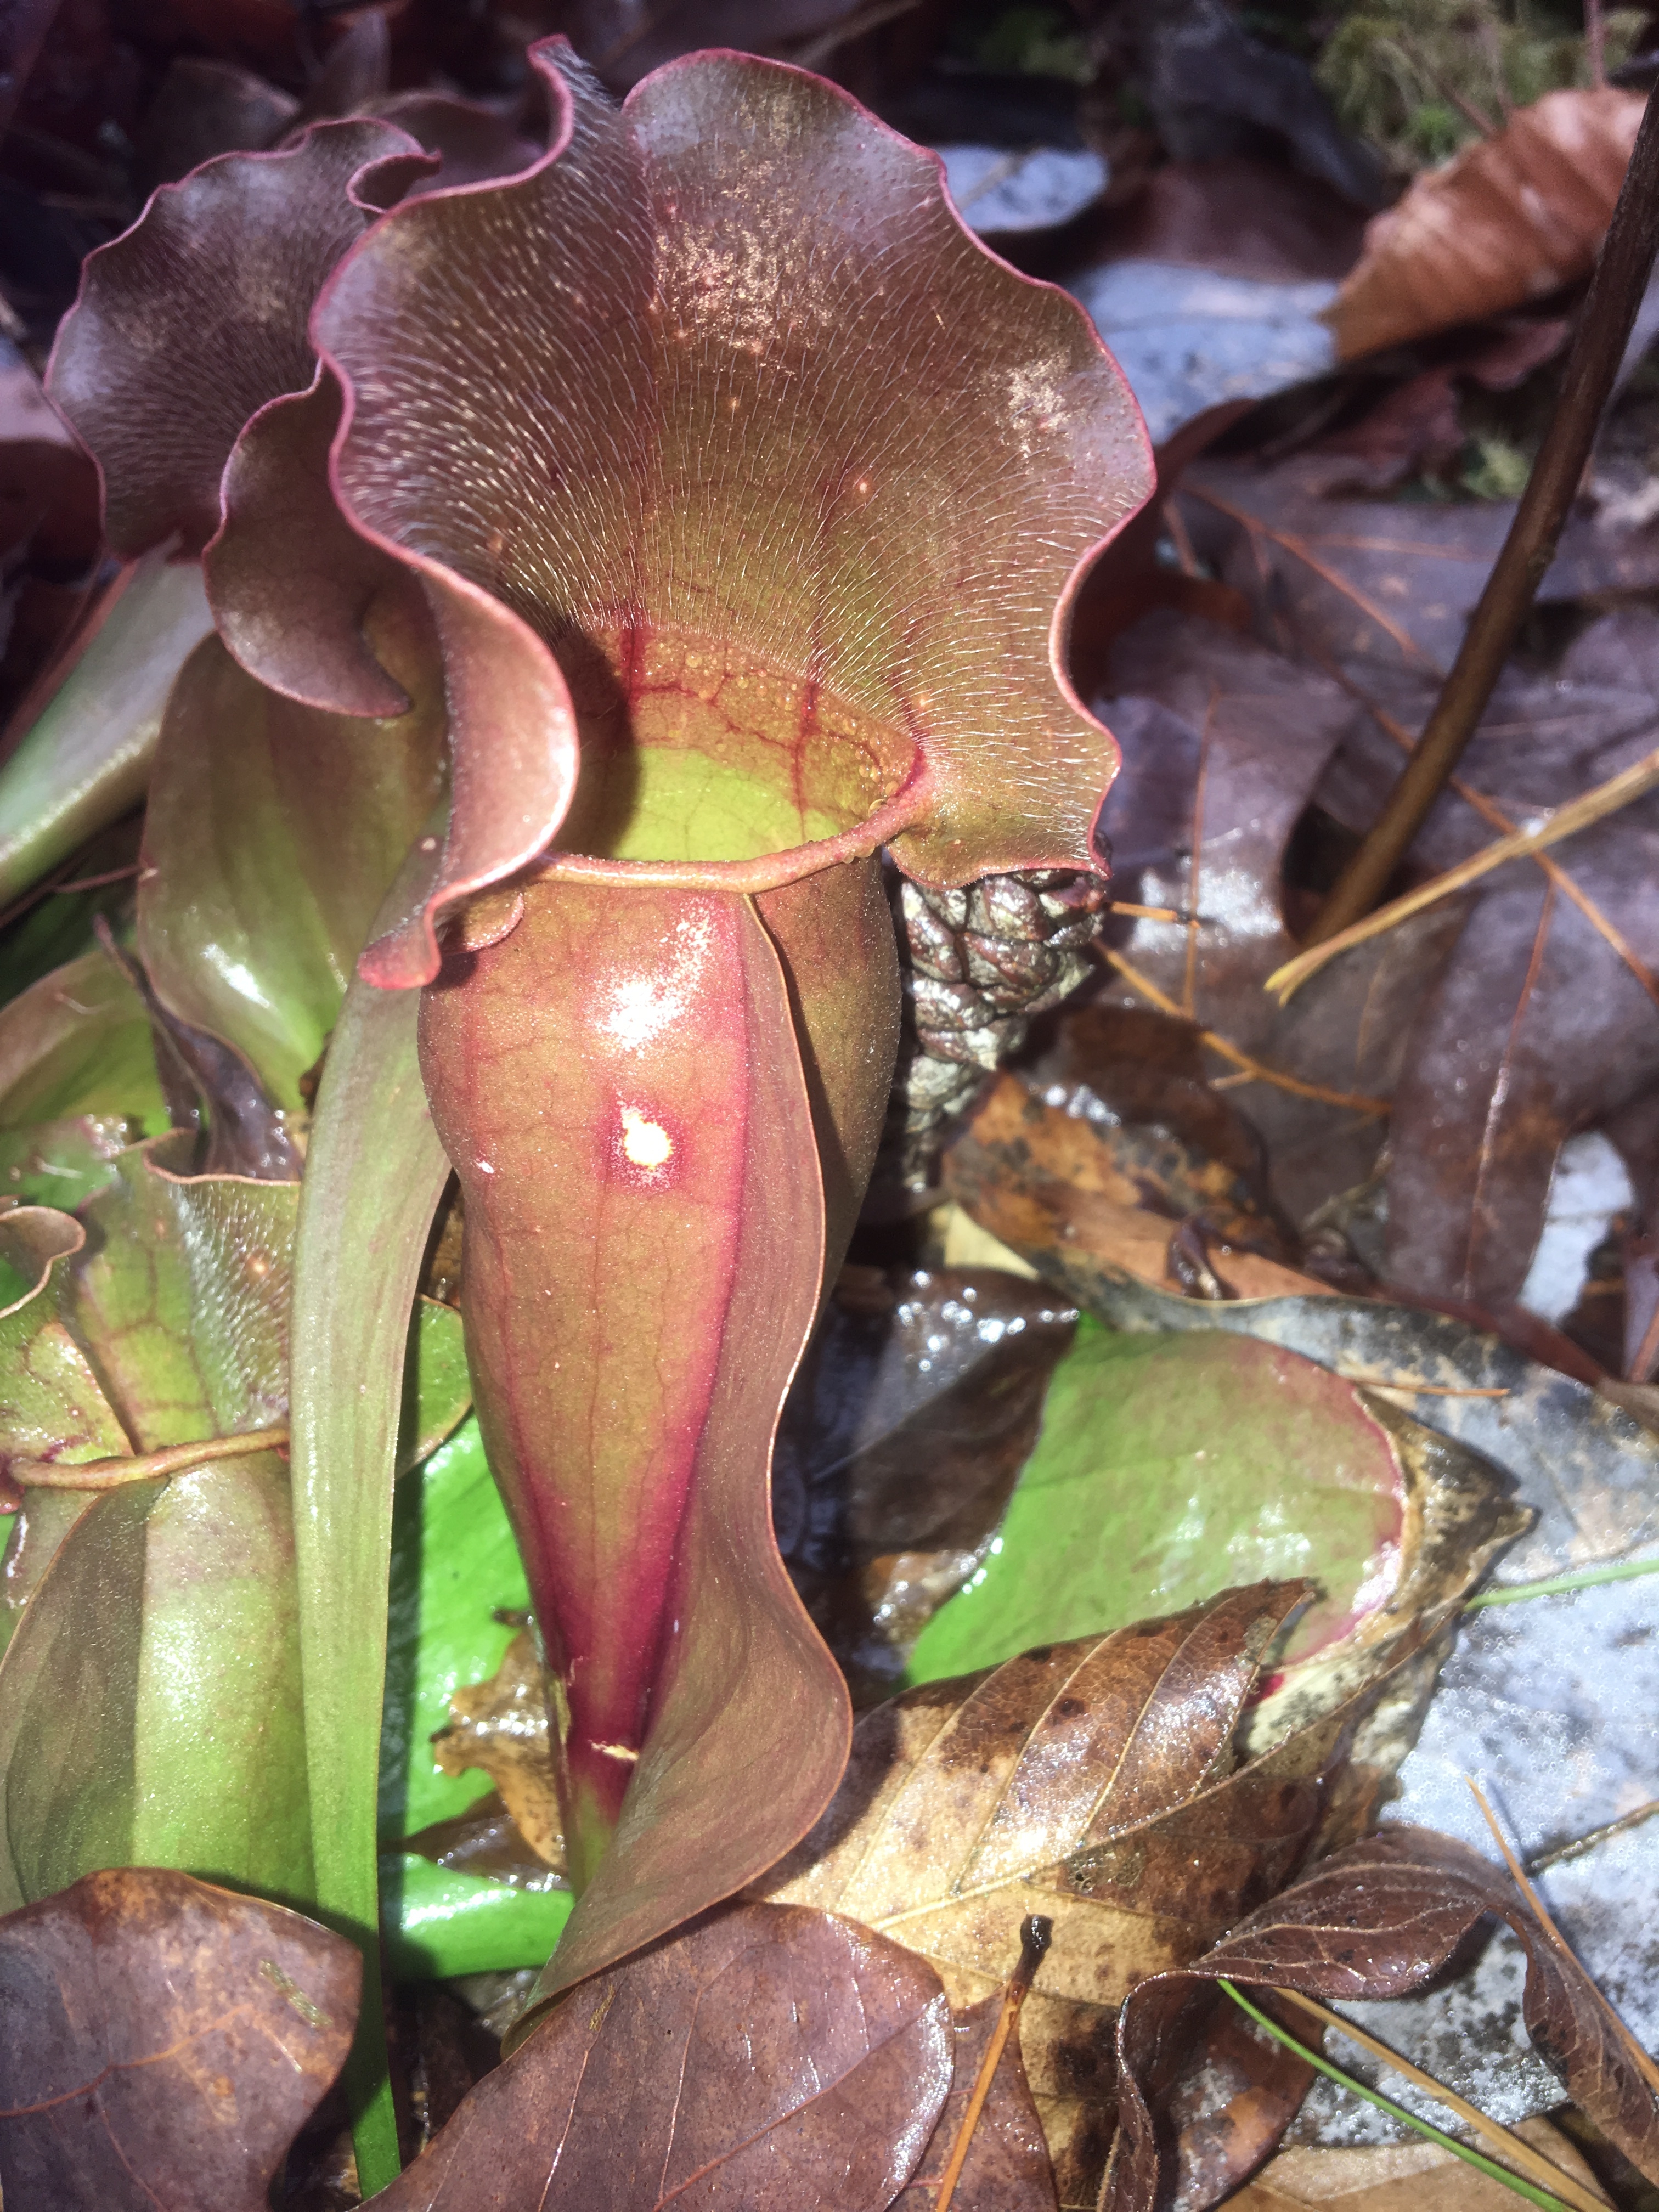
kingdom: Plantae
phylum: Tracheophyta
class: Magnoliopsida
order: Ericales
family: Sarraceniaceae
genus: Sarracenia
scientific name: Sarracenia purpurea
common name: purple pitcherplant
